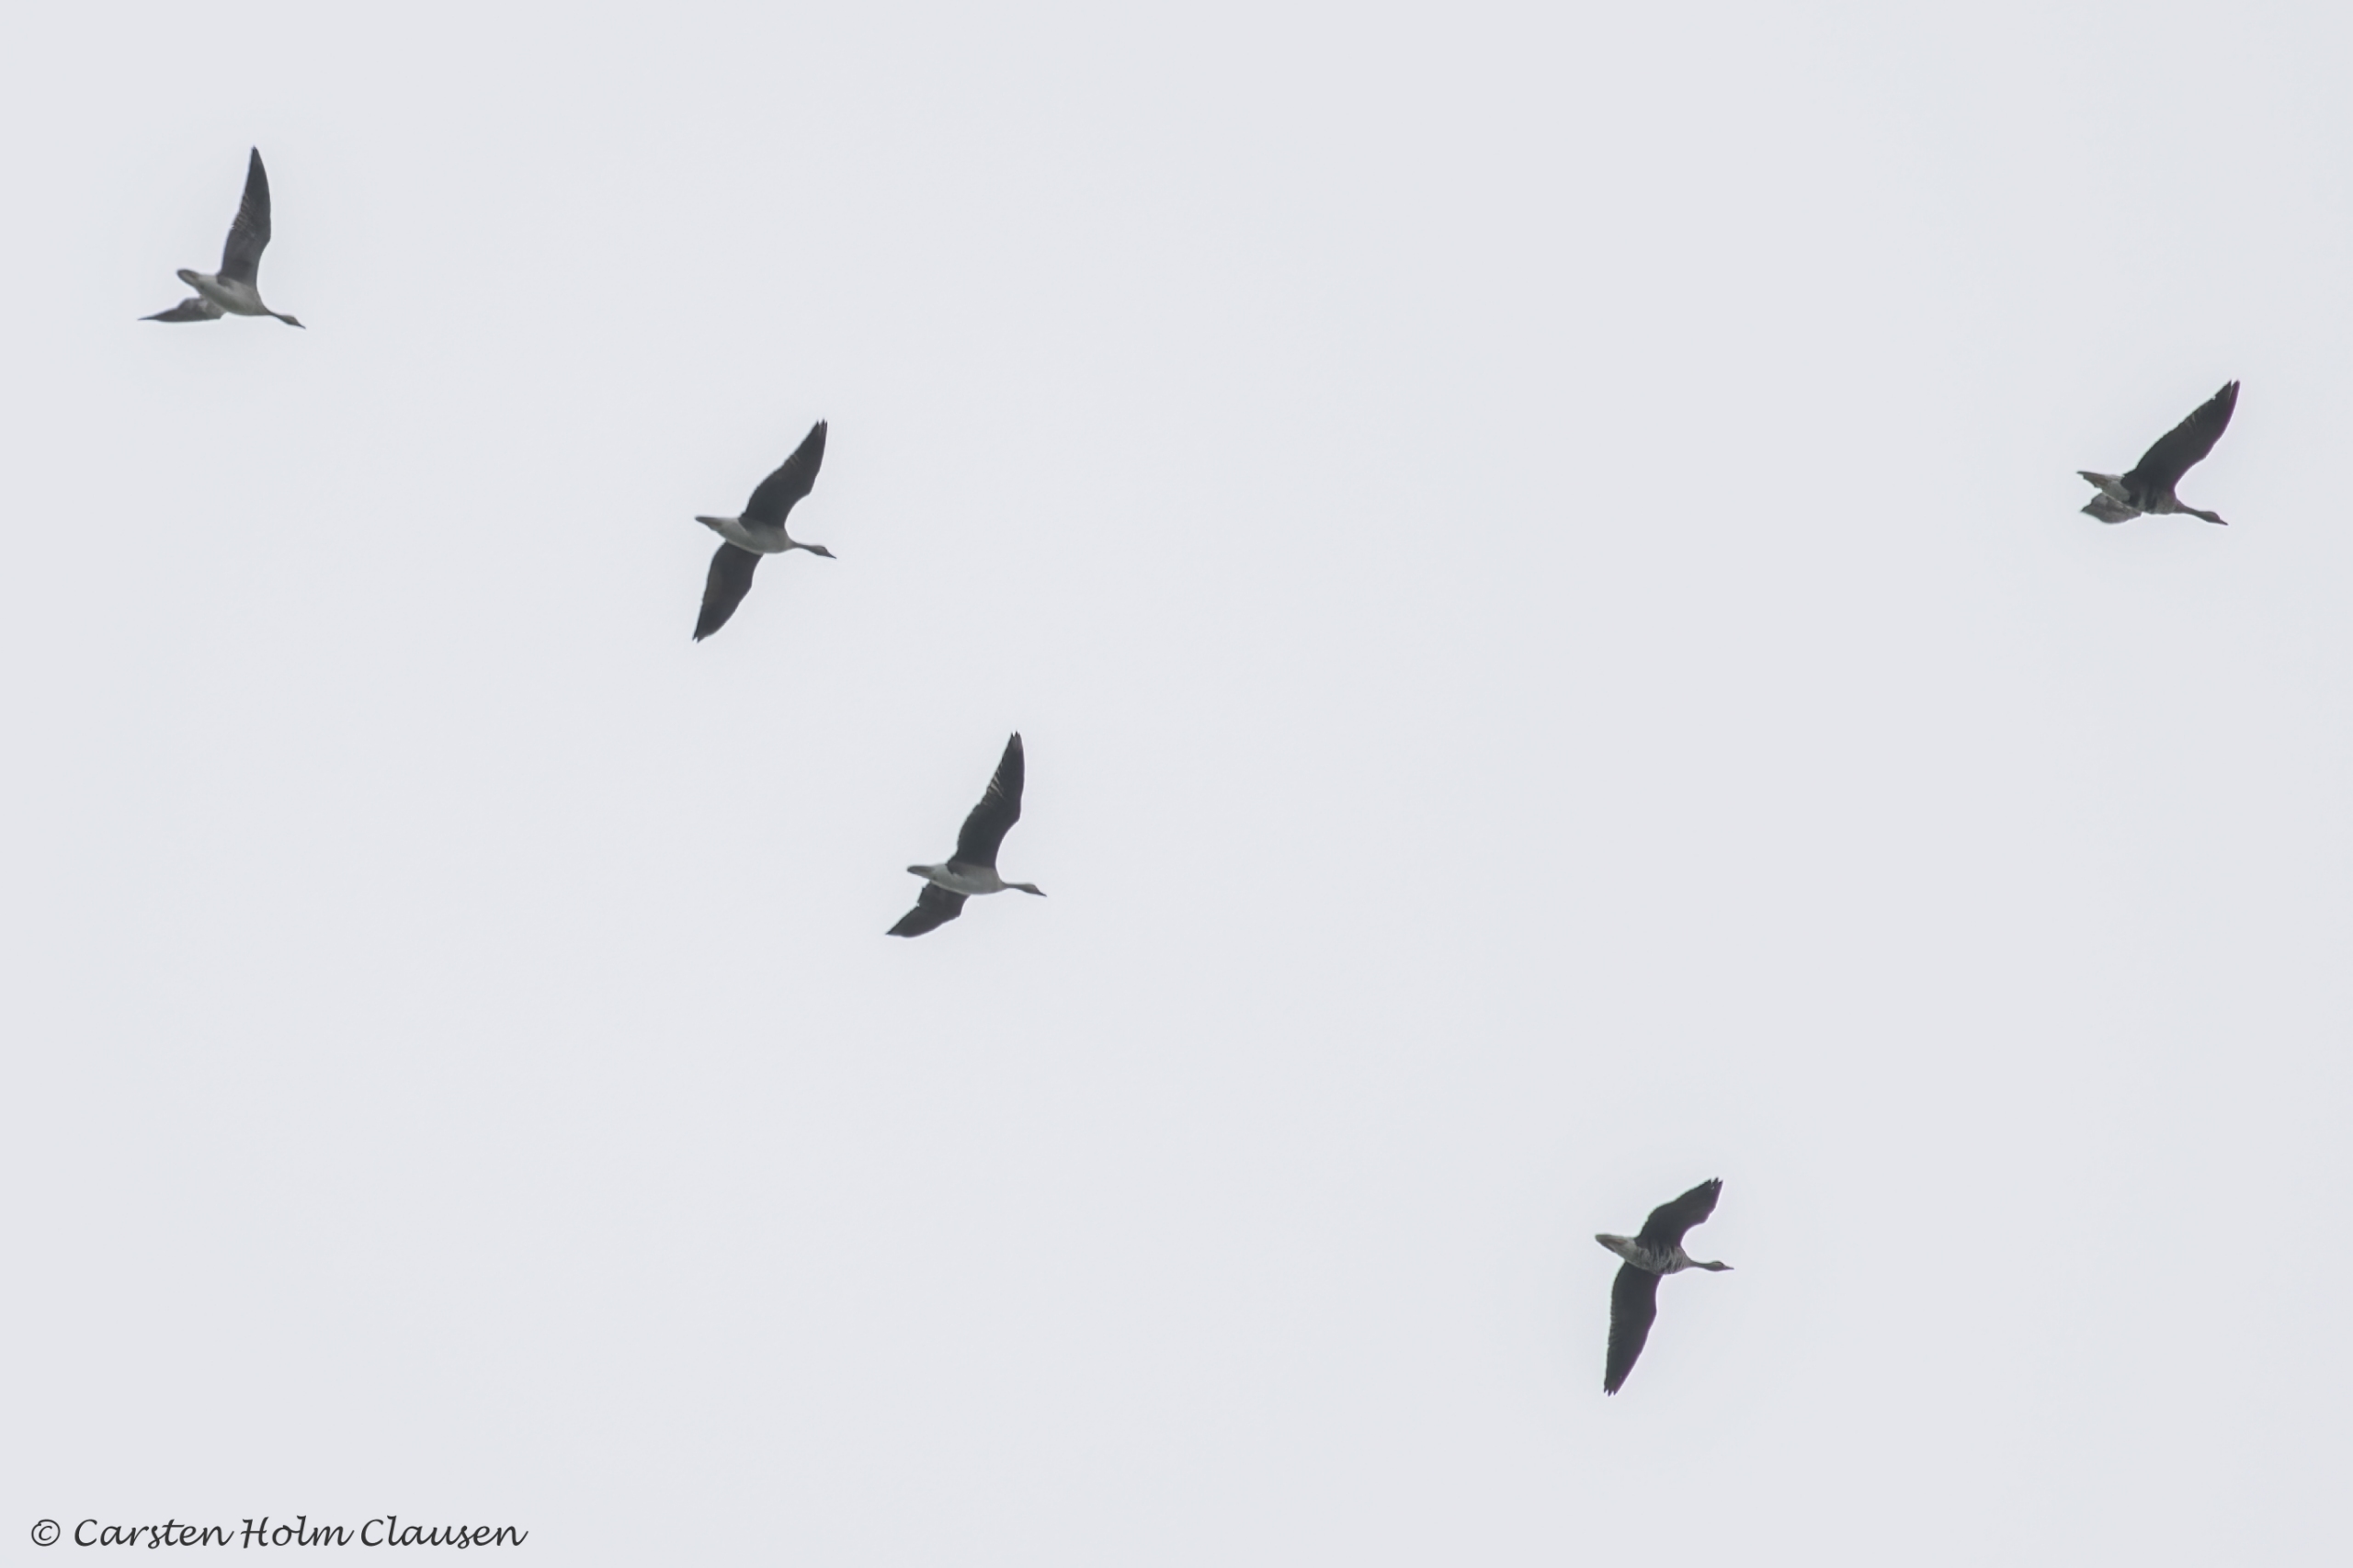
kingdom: Animalia
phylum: Chordata
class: Aves
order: Anseriformes
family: Anatidae
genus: Anser
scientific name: Anser albifrons
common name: Blisgås
